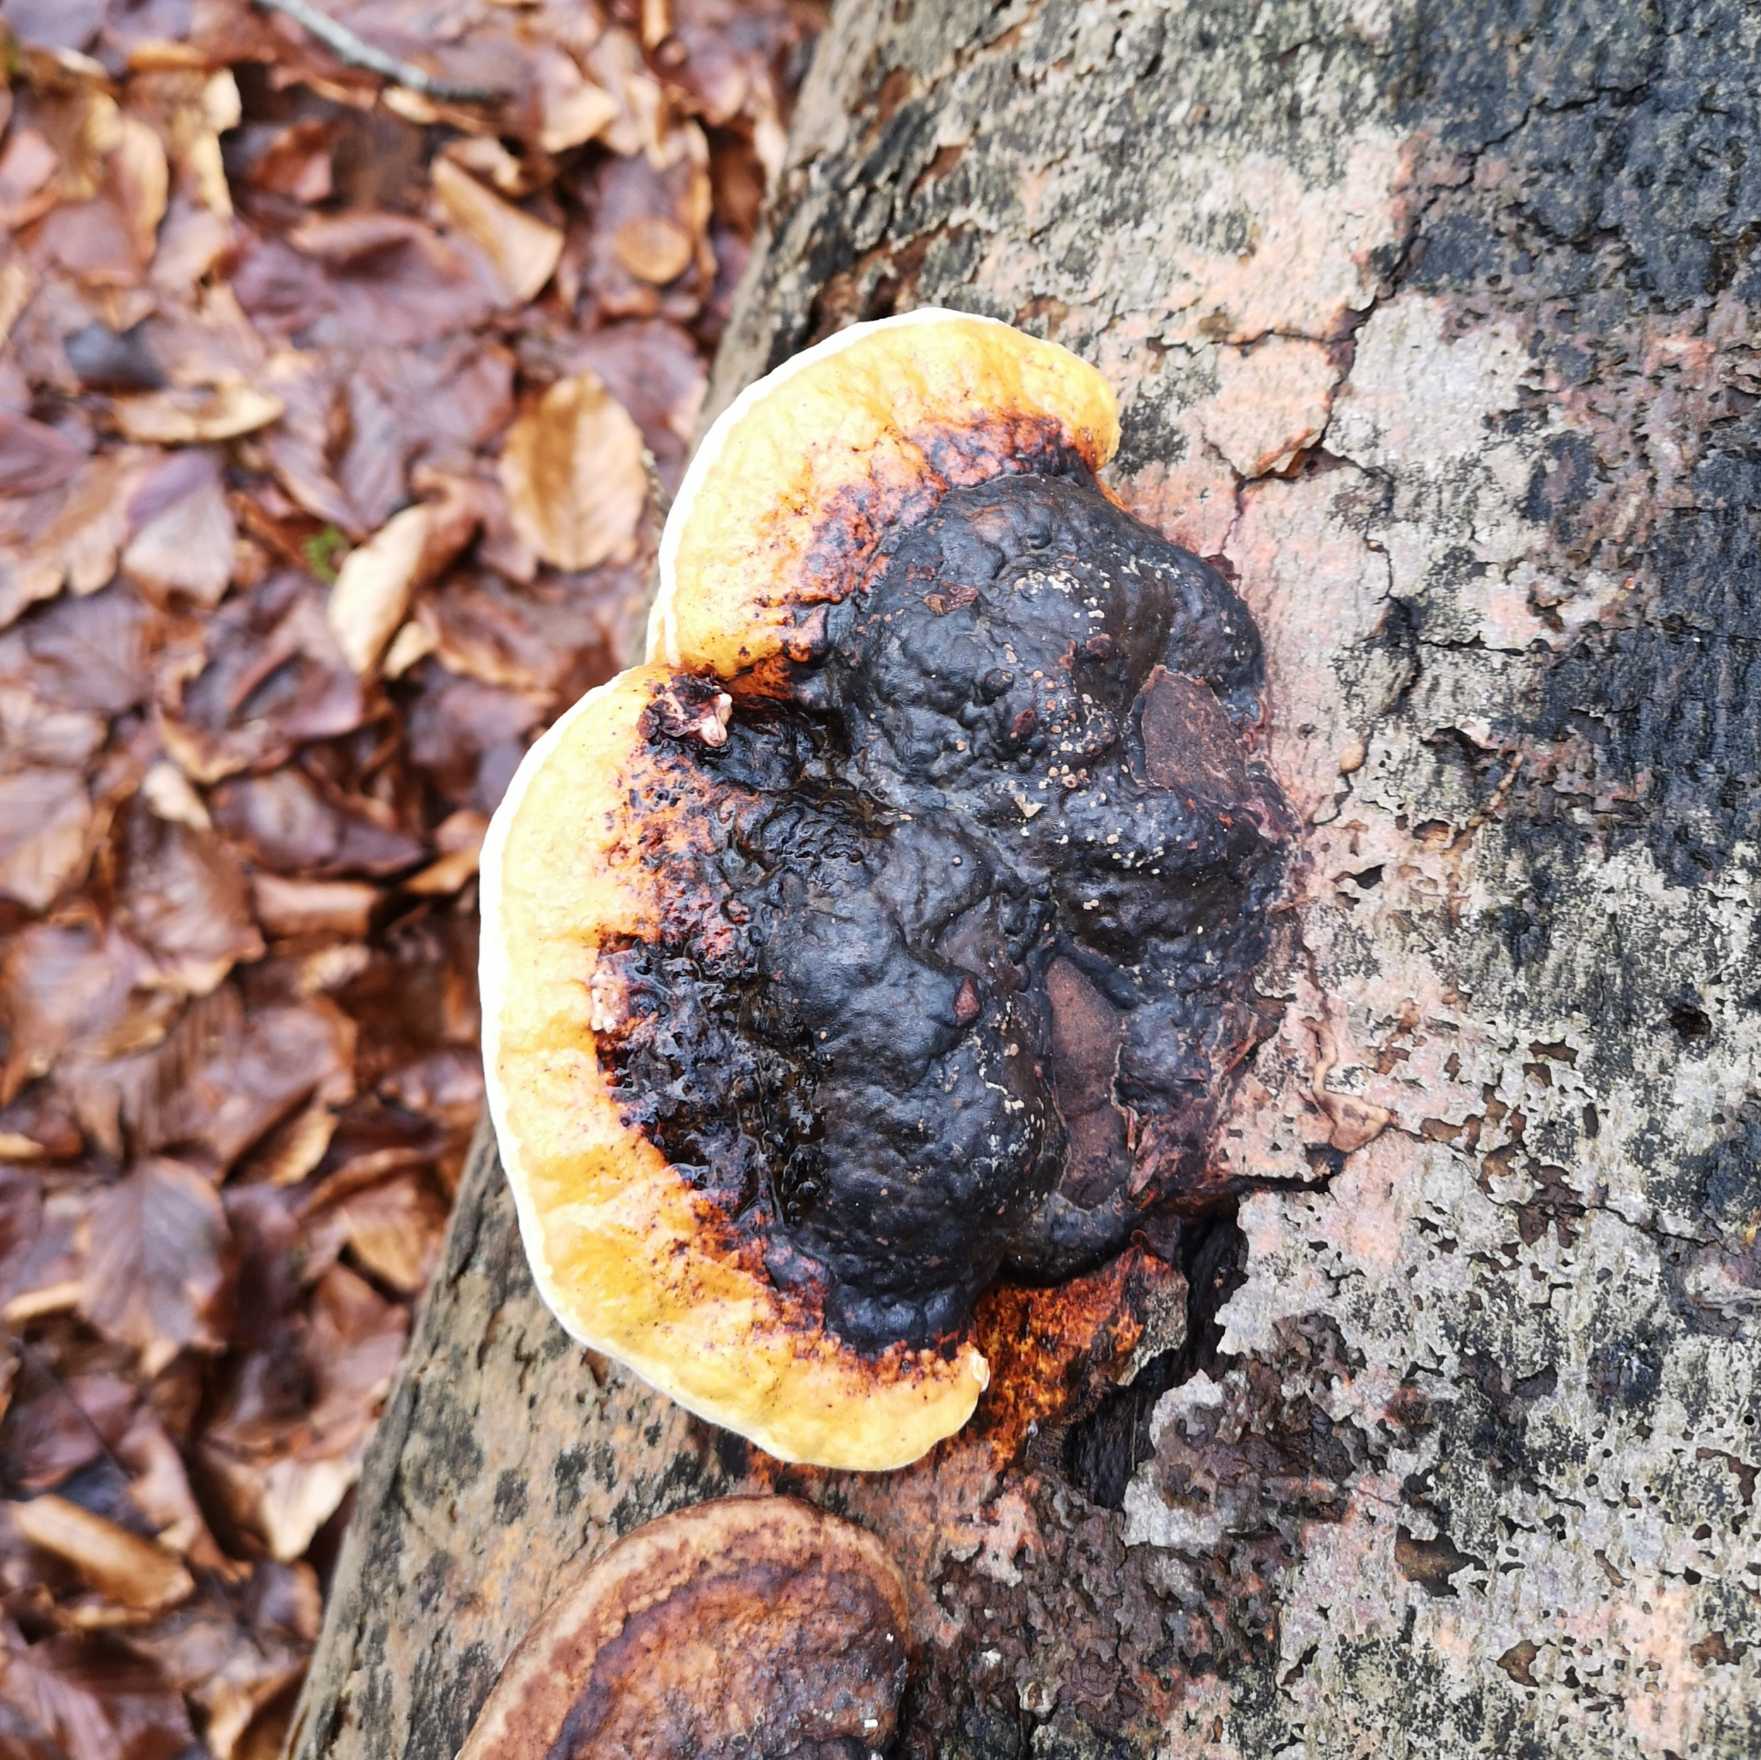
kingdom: Fungi
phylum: Basidiomycota
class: Agaricomycetes
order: Polyporales
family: Fomitopsidaceae
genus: Fomitopsis
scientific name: Fomitopsis pinicola
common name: Randbæltet hovporesvamp
